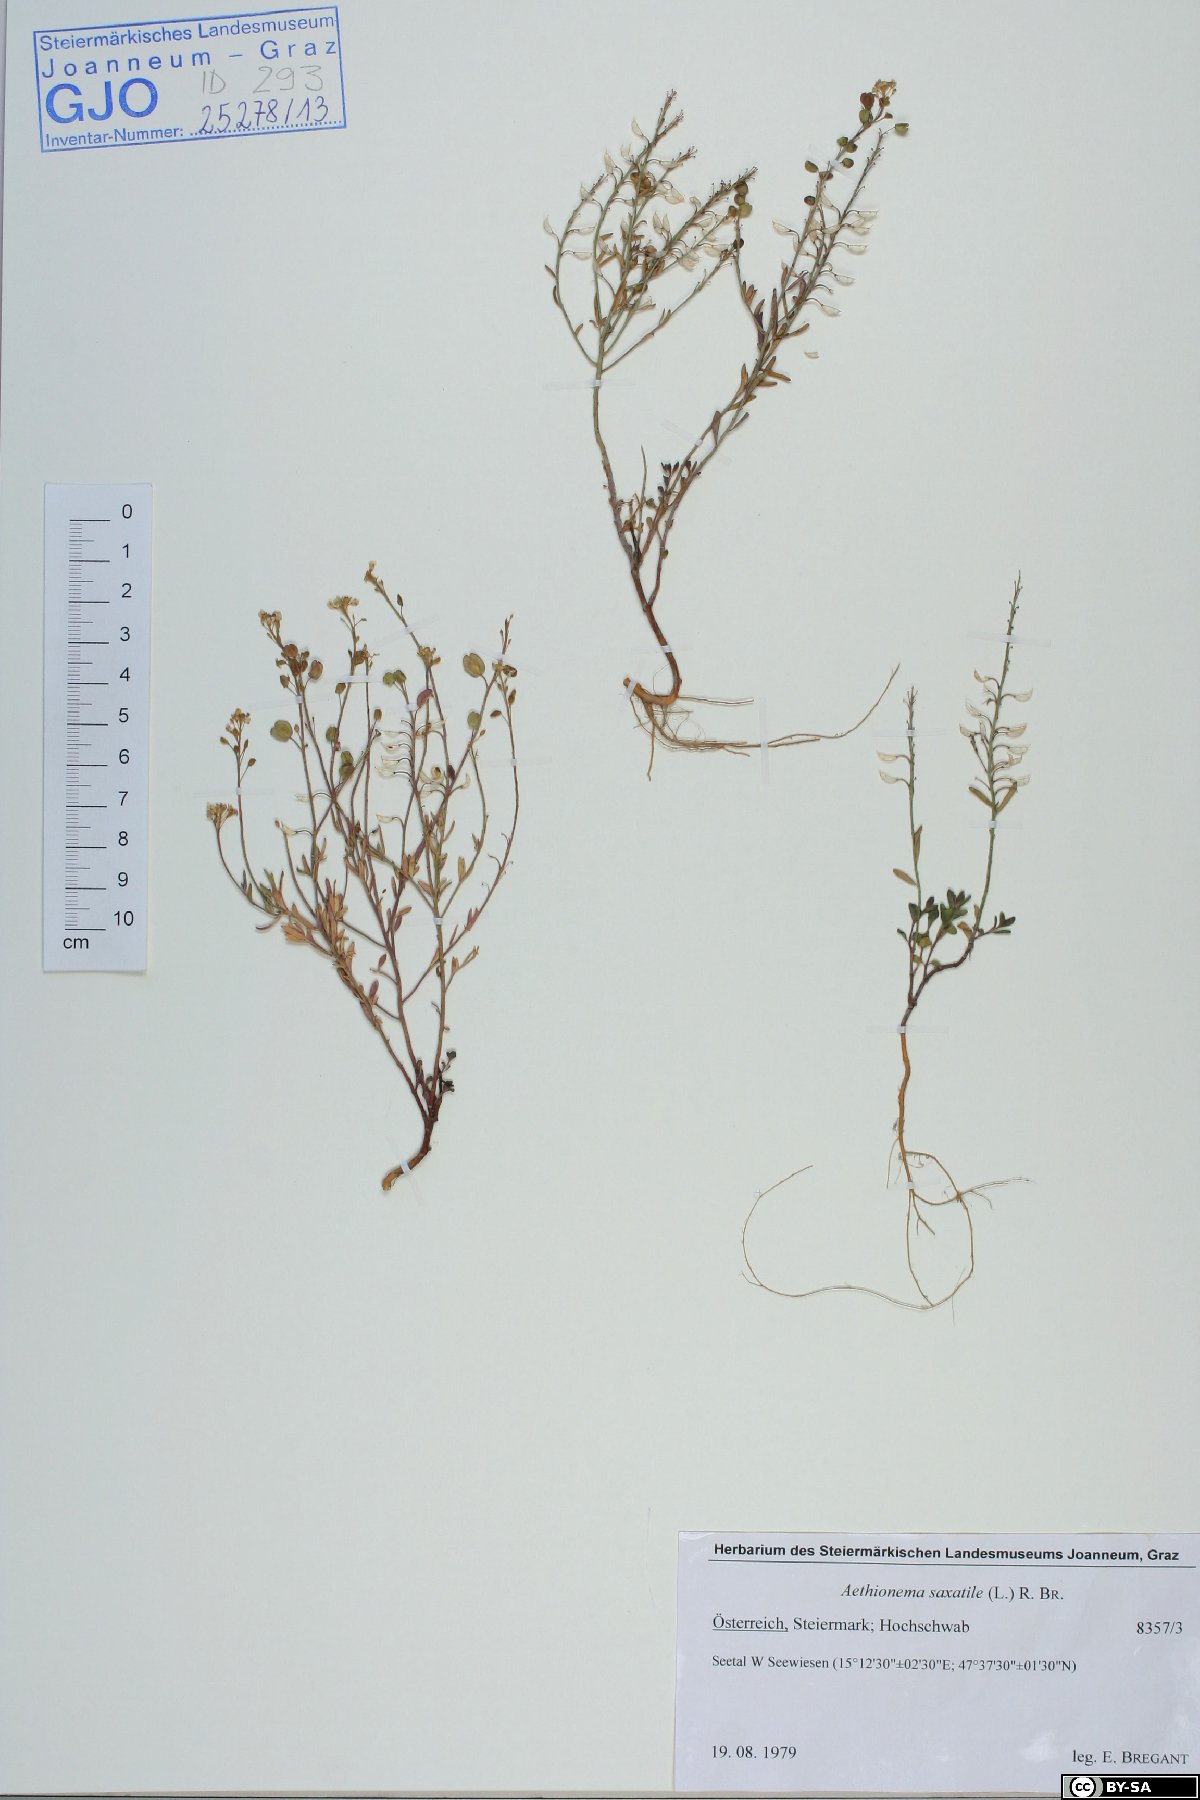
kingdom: Plantae
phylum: Tracheophyta
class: Magnoliopsida
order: Brassicales
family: Brassicaceae
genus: Aethionema
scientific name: Aethionema saxatile
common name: Burnt candytuft
